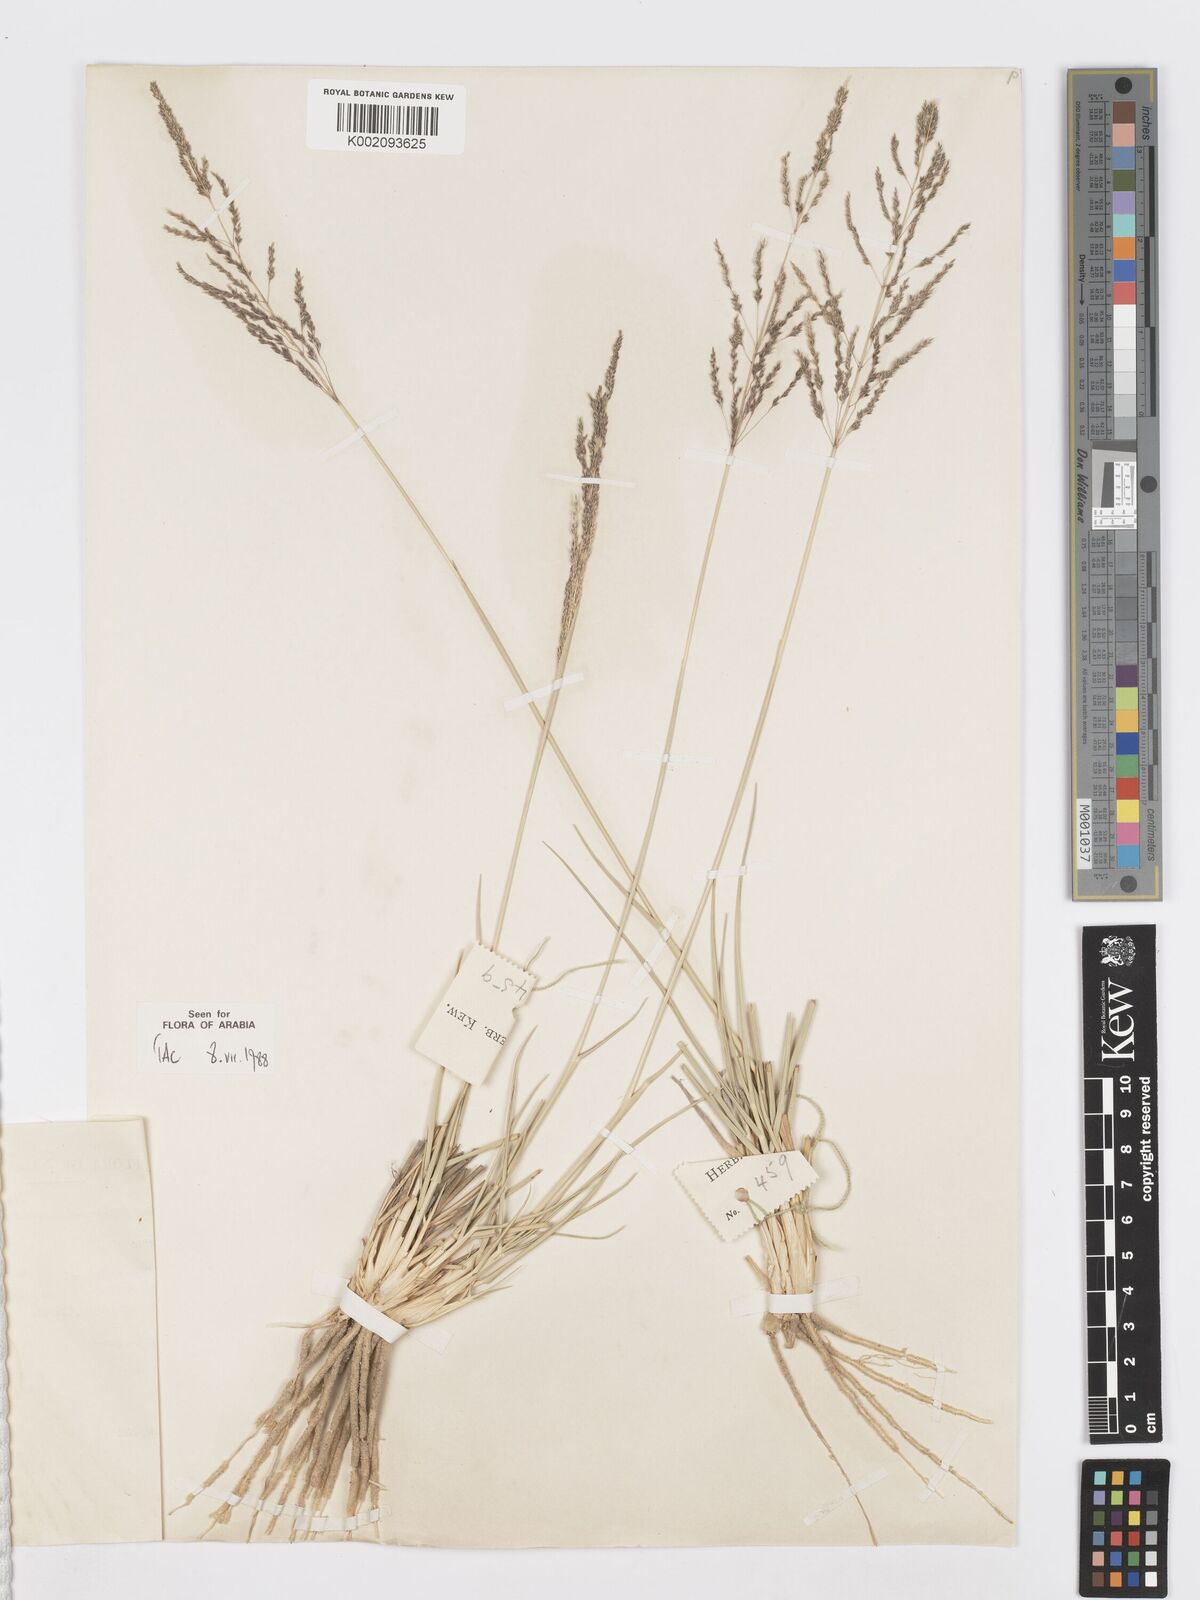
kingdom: Plantae
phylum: Tracheophyta
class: Liliopsida
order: Poales
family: Poaceae
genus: Sporobolus
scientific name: Sporobolus ioclados
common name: Pan dropseed
